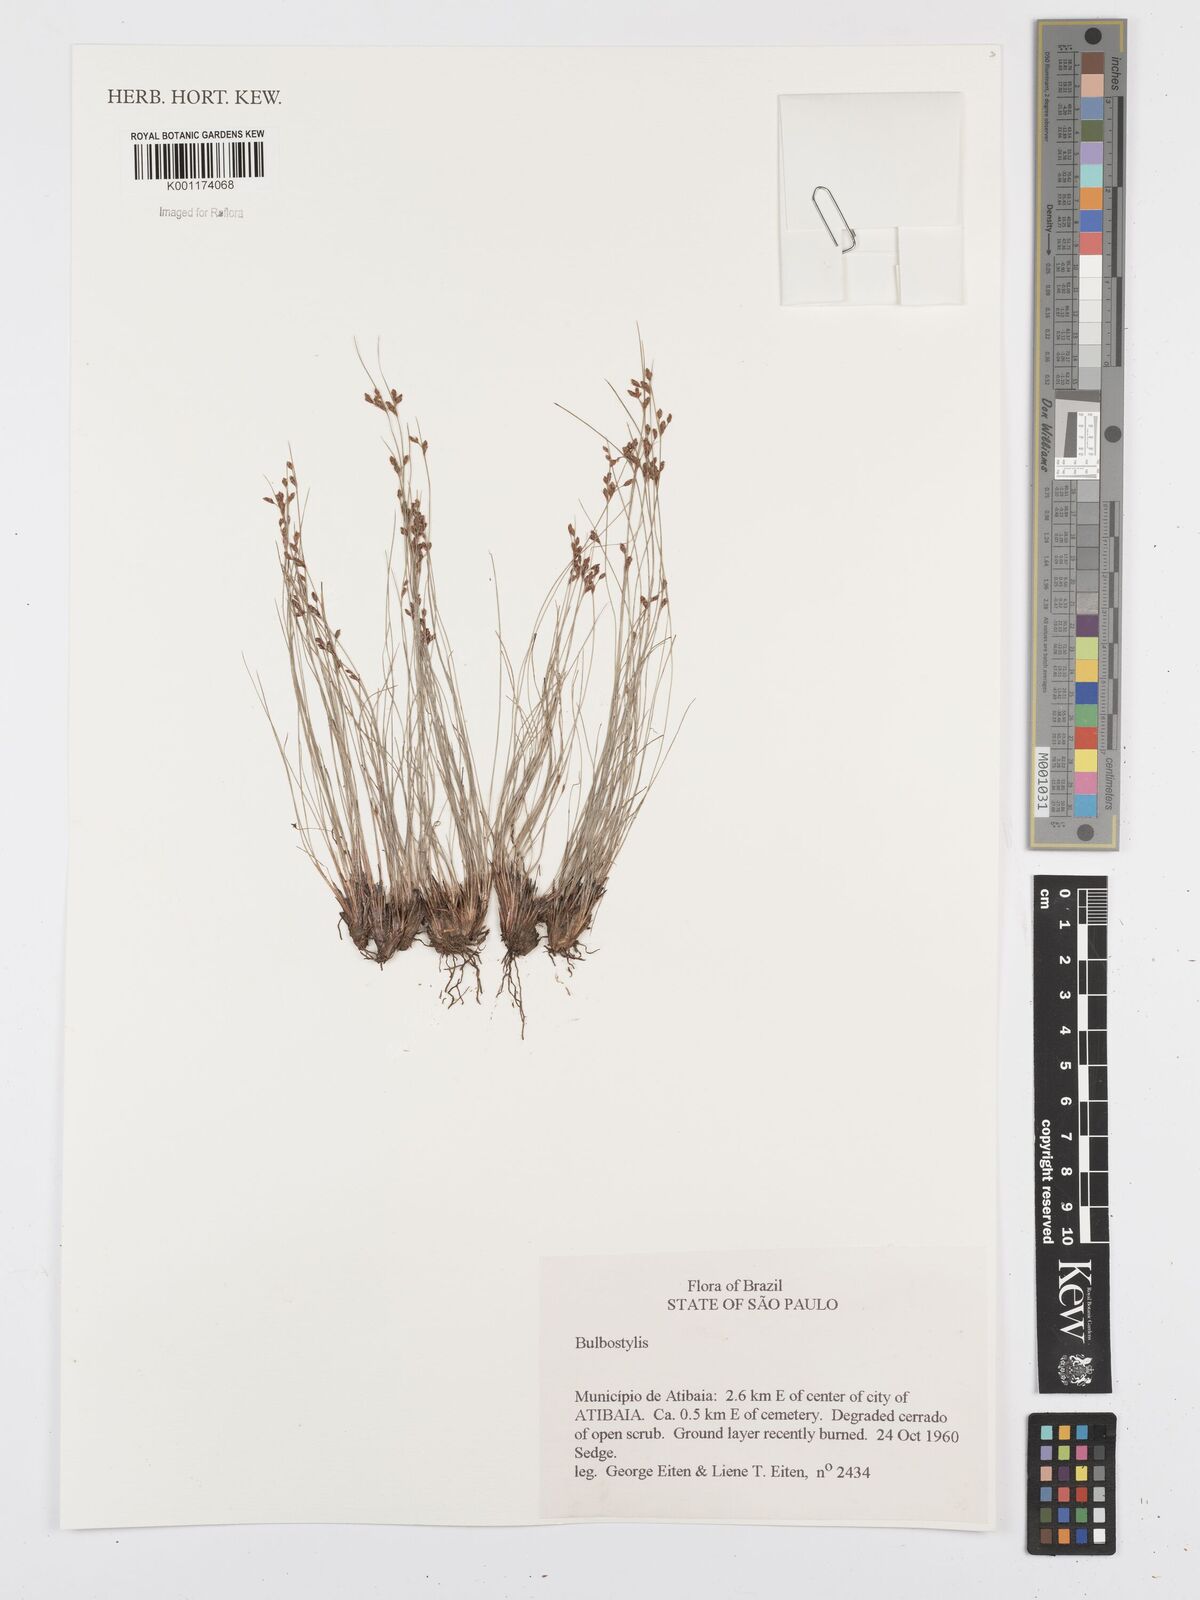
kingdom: Plantae
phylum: Tracheophyta
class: Liliopsida
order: Poales
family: Cyperaceae
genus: Bulbostylis
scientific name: Bulbostylis
